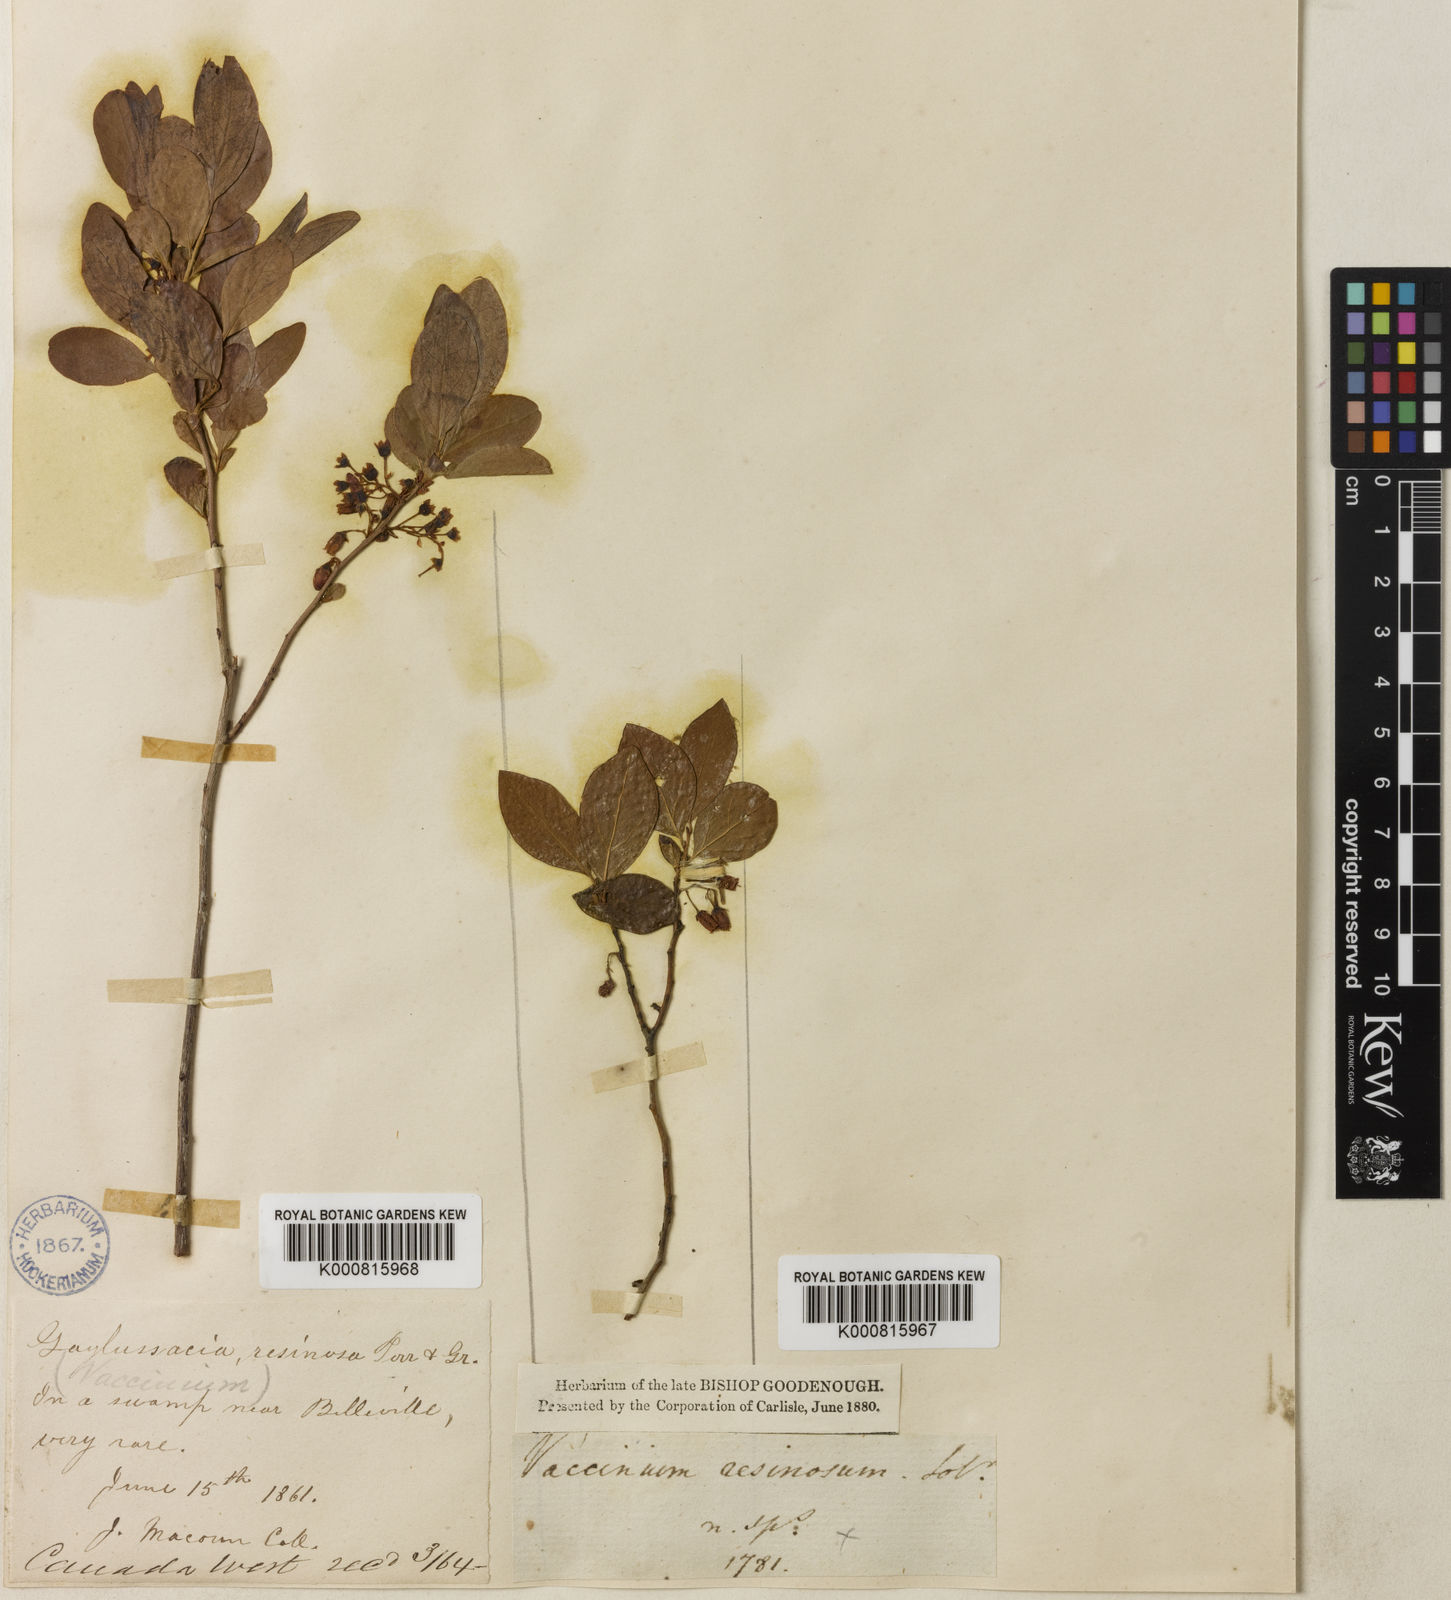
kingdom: Plantae
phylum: Tracheophyta
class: Magnoliopsida
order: Ericales
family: Ericaceae
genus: Gaylussacia
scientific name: Gaylussacia baccata
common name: Black huckleberry
